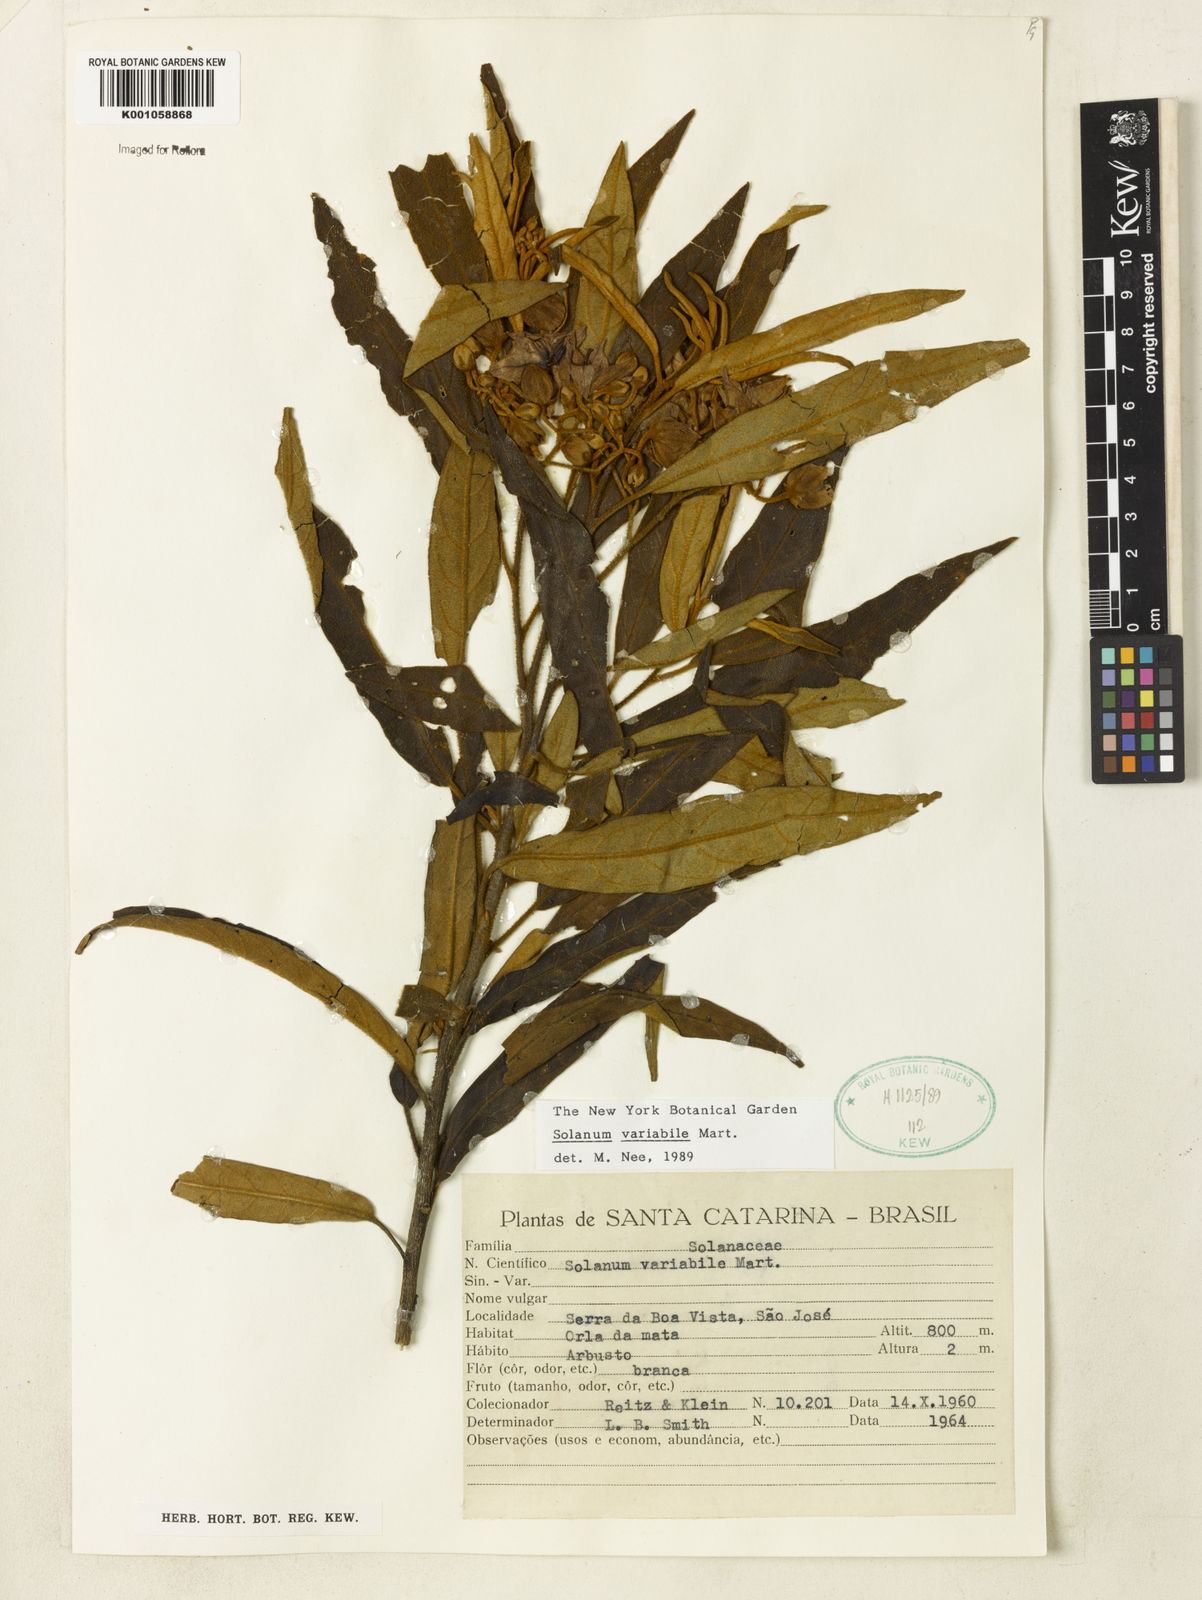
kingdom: Plantae
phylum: Tracheophyta
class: Magnoliopsida
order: Solanales
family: Solanaceae
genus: Solanum
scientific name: Solanum variabile
